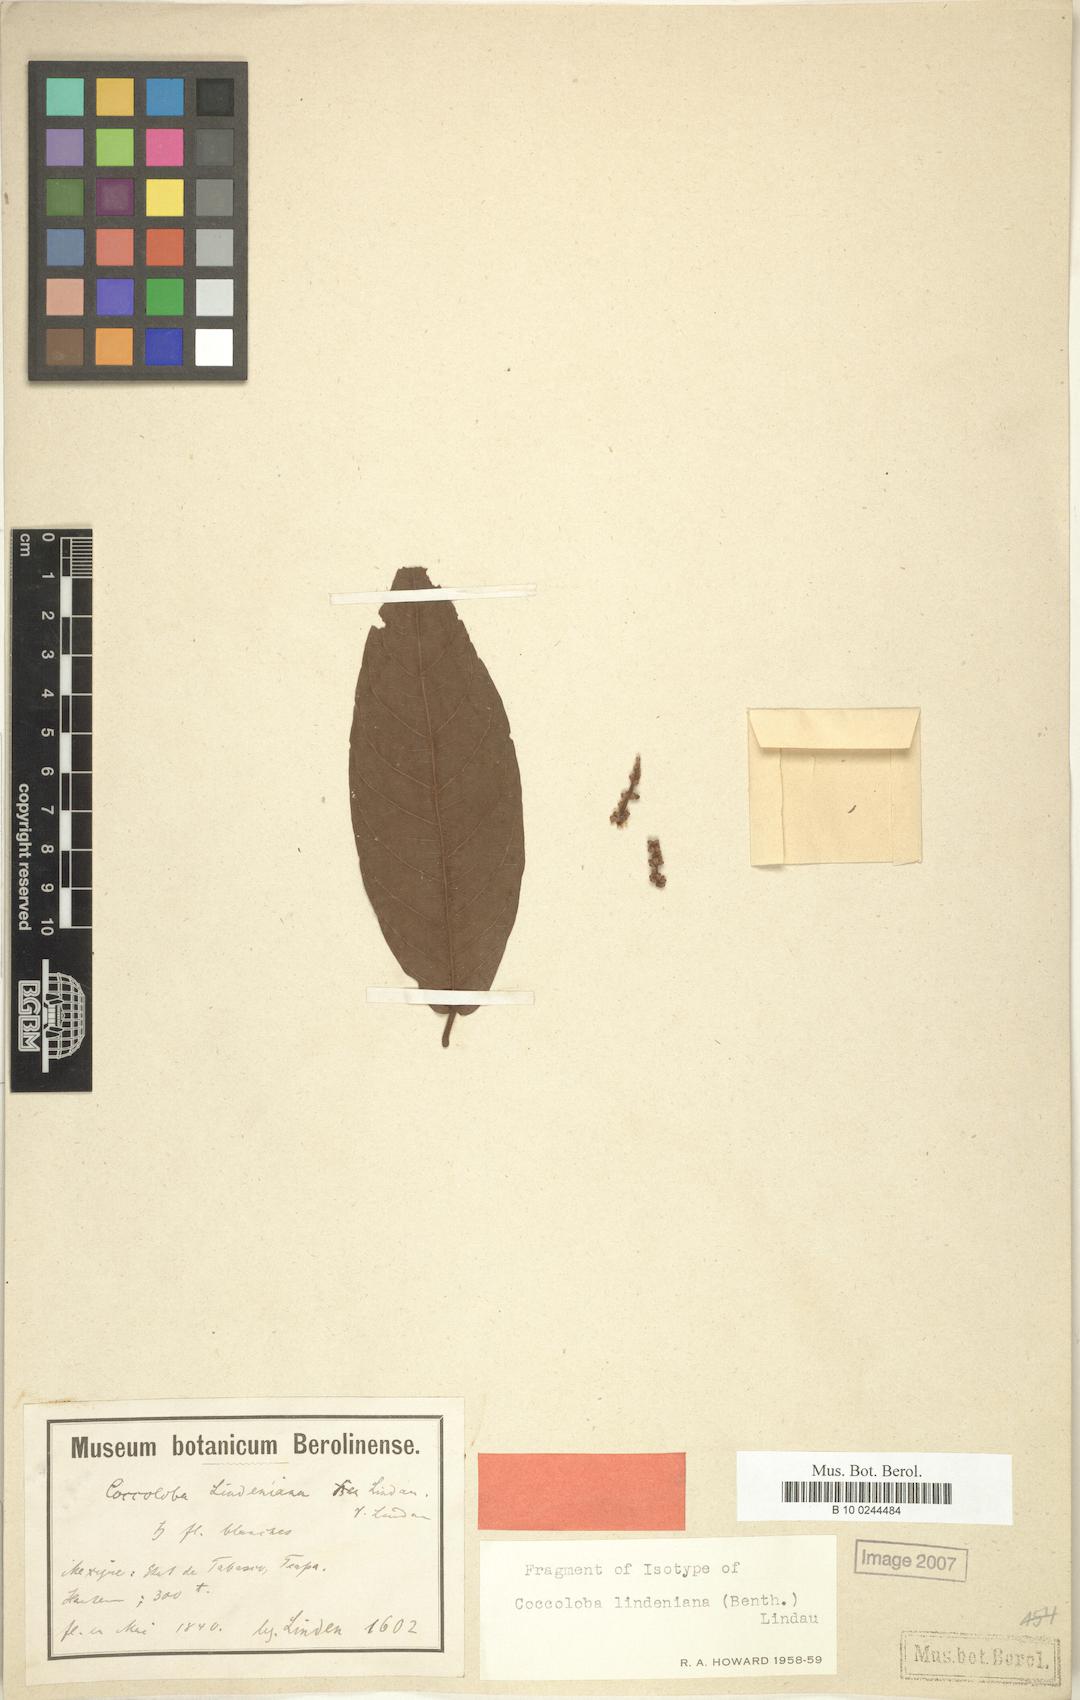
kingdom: Plantae
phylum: Tracheophyta
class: Magnoliopsida
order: Caryophyllales
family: Polygonaceae
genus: Coccoloba
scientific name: Coccoloba lindeniana
